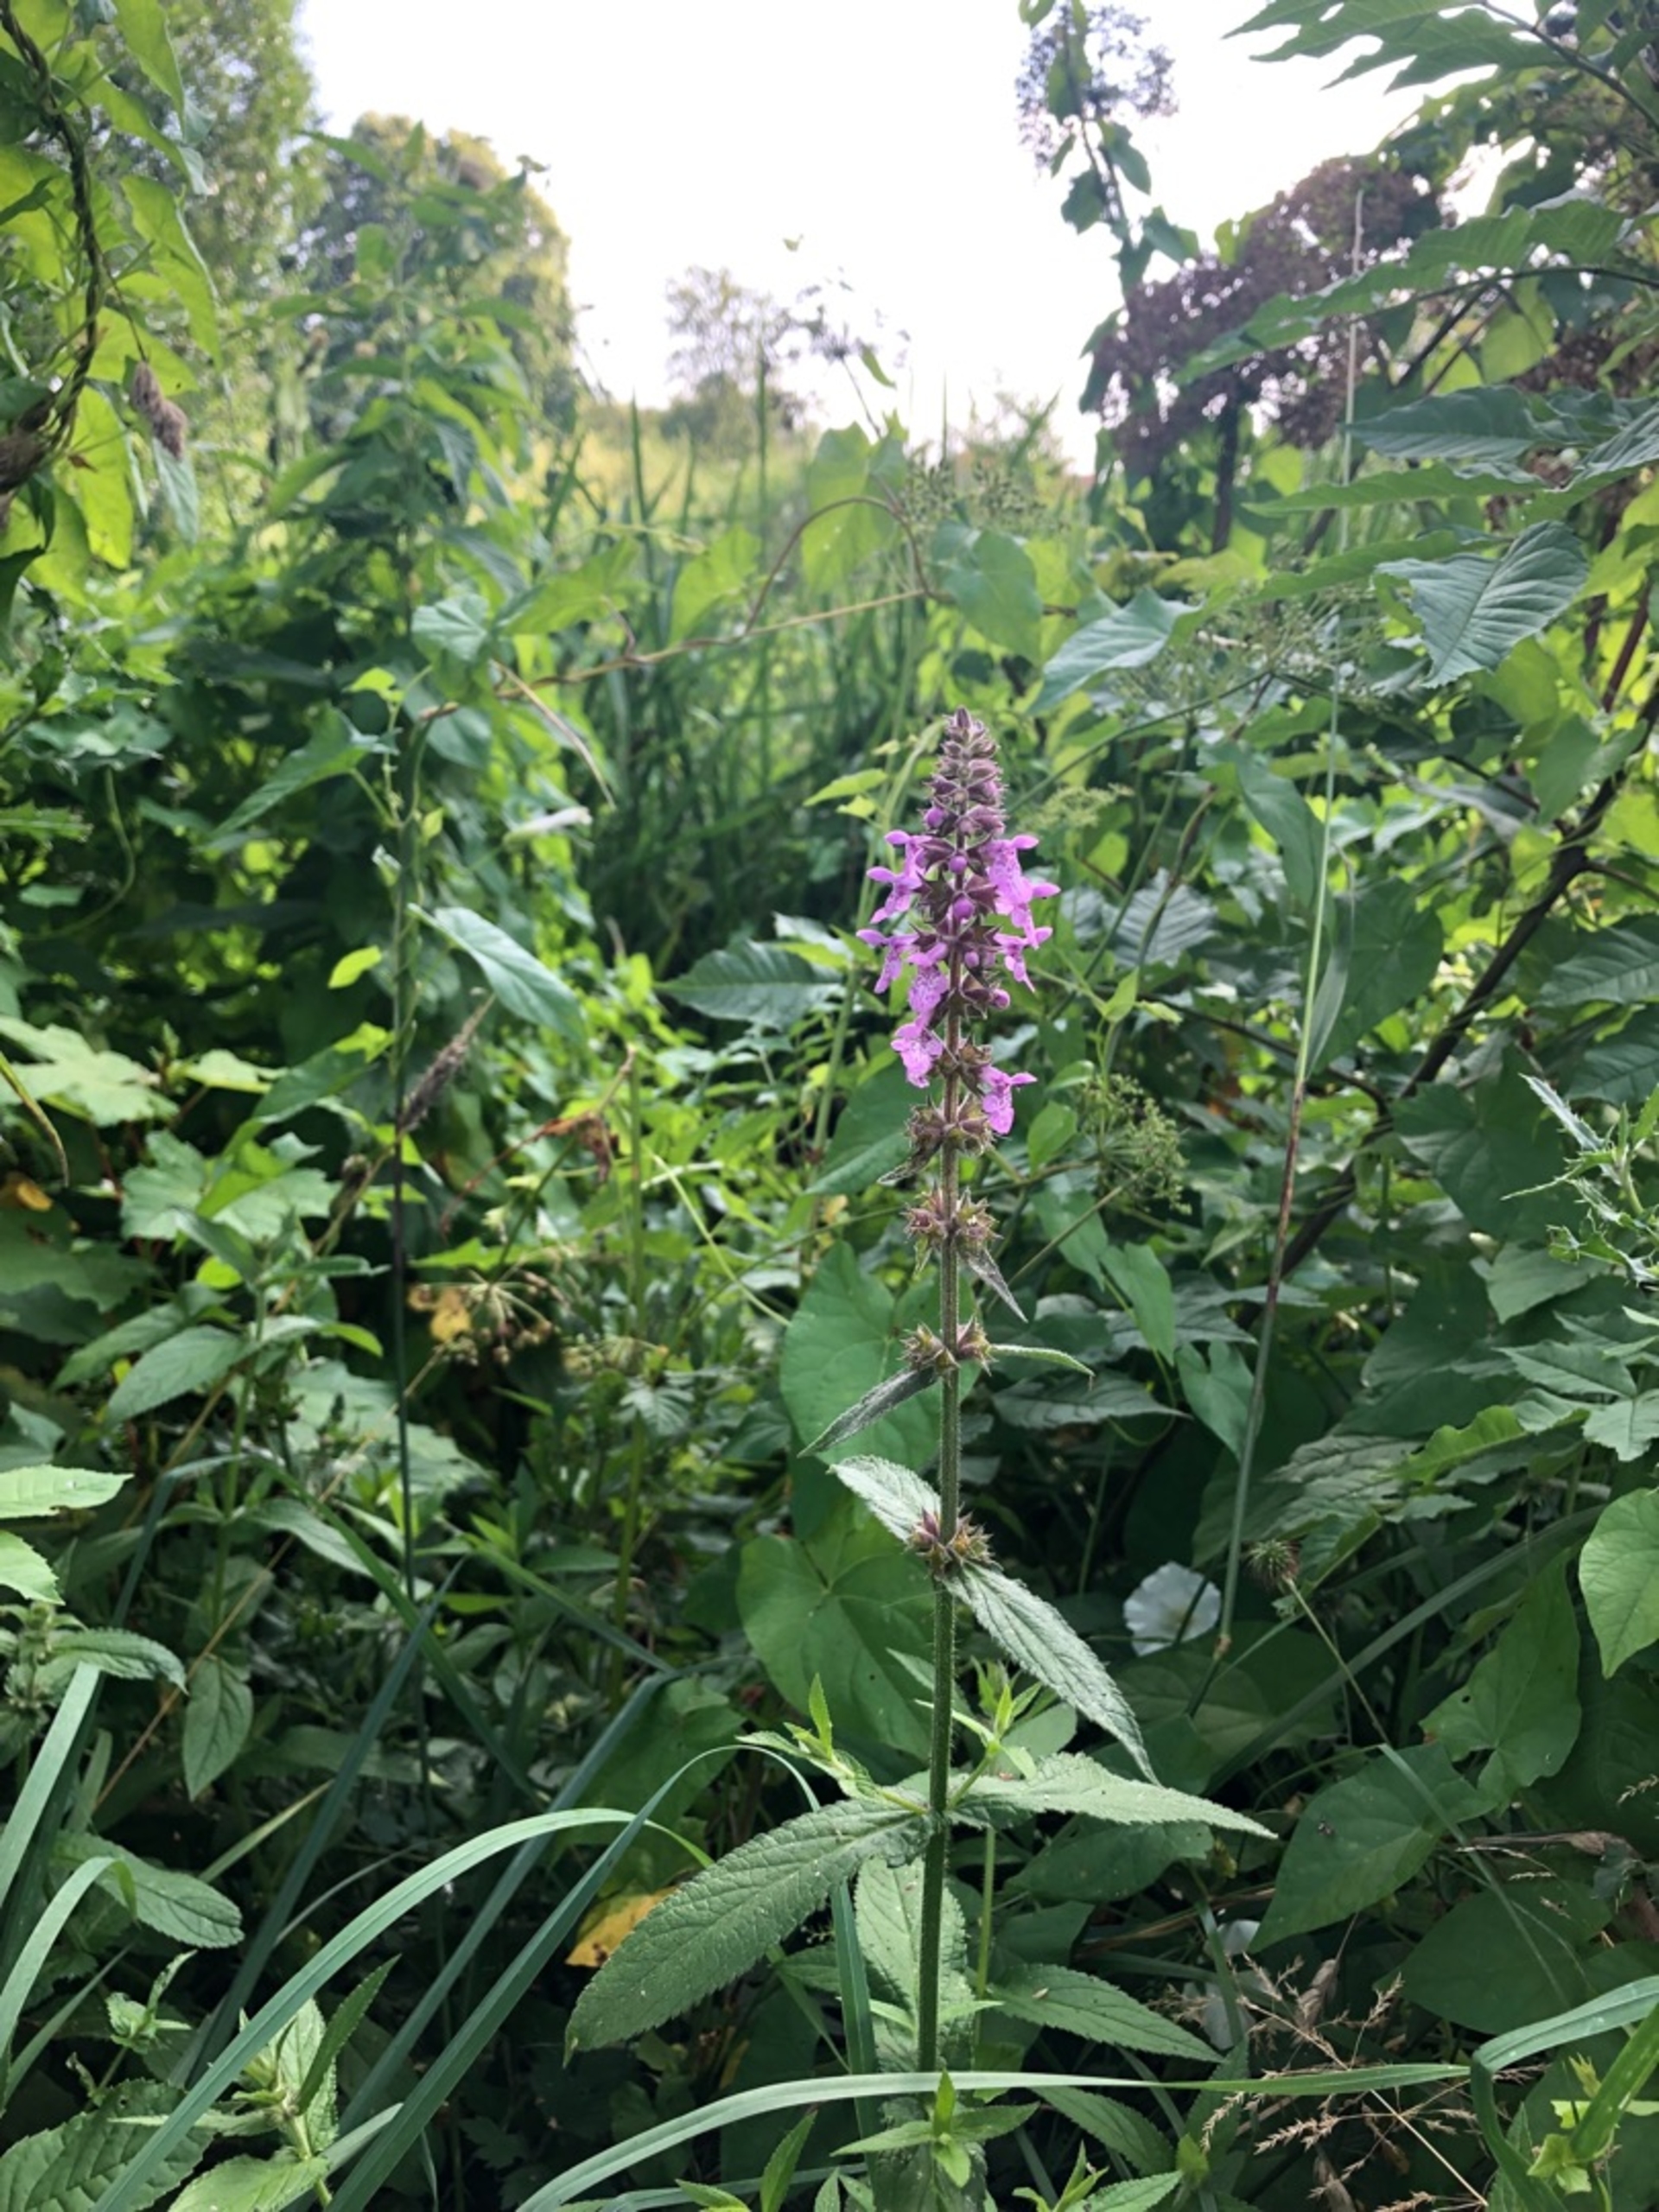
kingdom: Plantae
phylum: Tracheophyta
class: Magnoliopsida
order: Lamiales
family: Lamiaceae
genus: Stachys
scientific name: Stachys palustris
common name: Kær-galtetand
